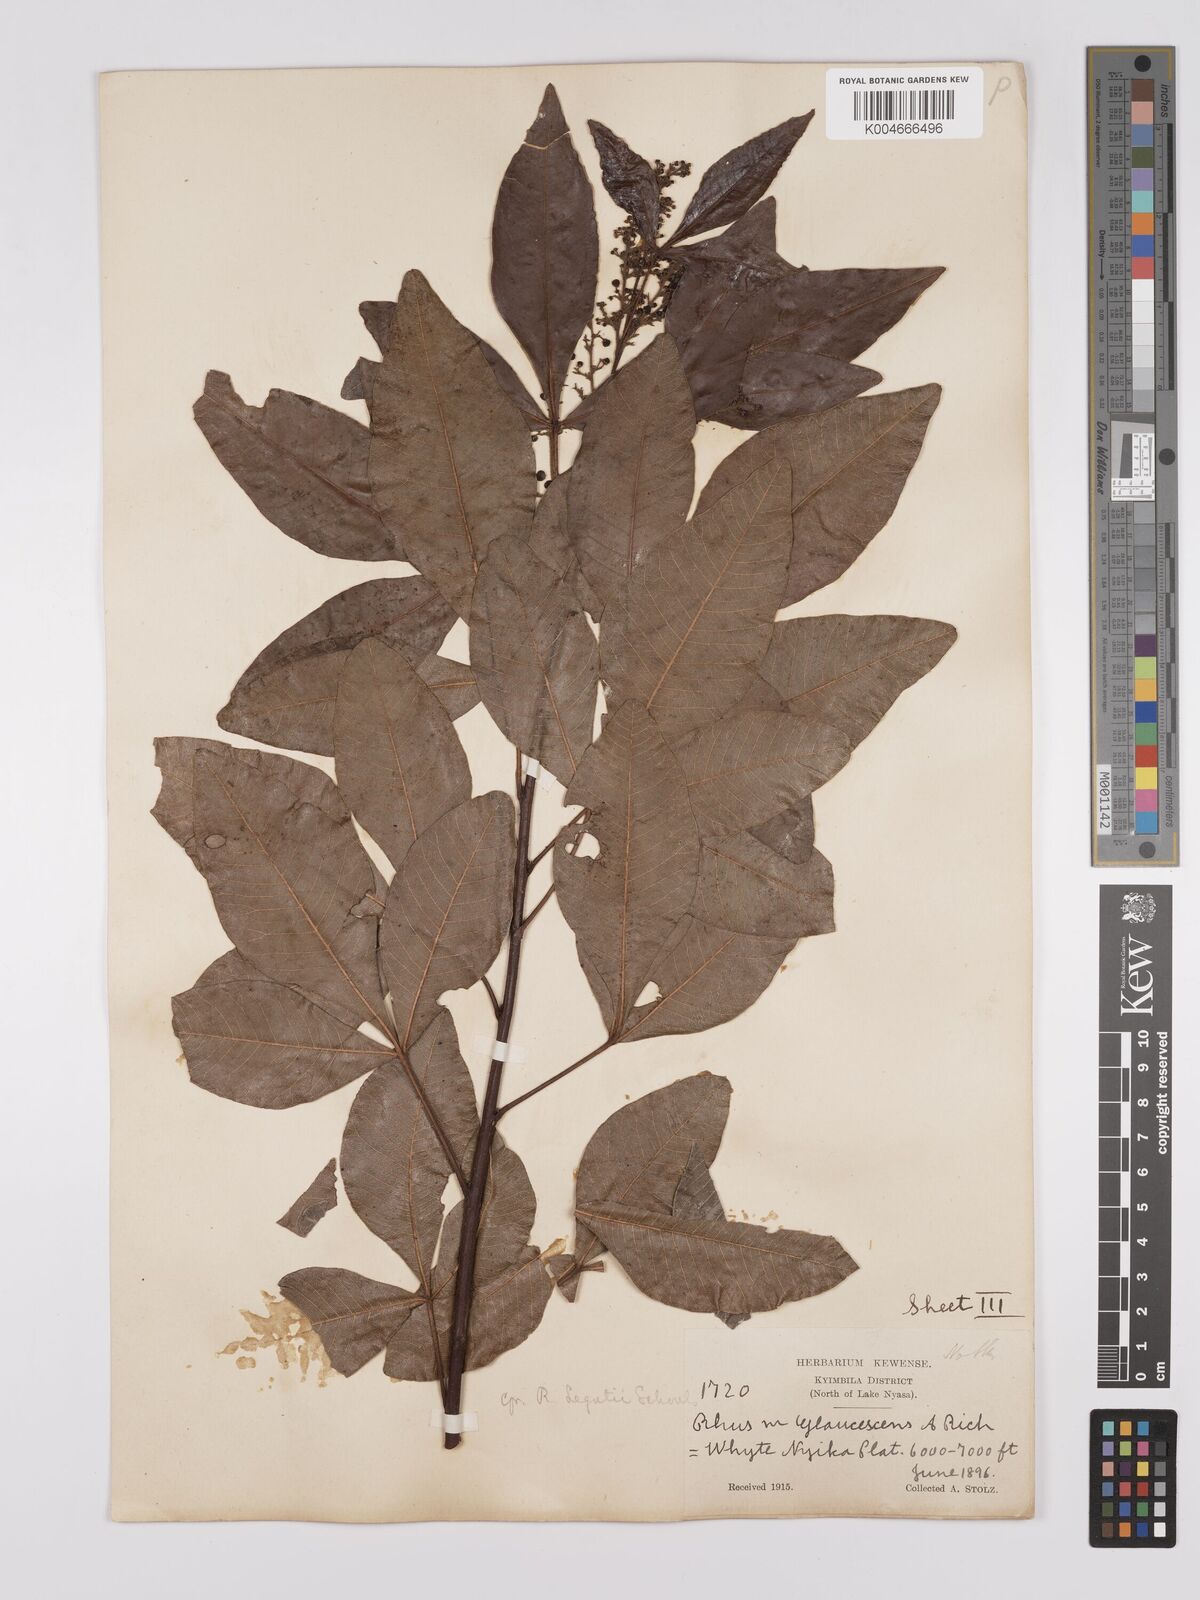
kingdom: Plantae
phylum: Tracheophyta
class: Magnoliopsida
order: Sapindales
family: Anacardiaceae
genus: Searsia
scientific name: Searsia anchietae
